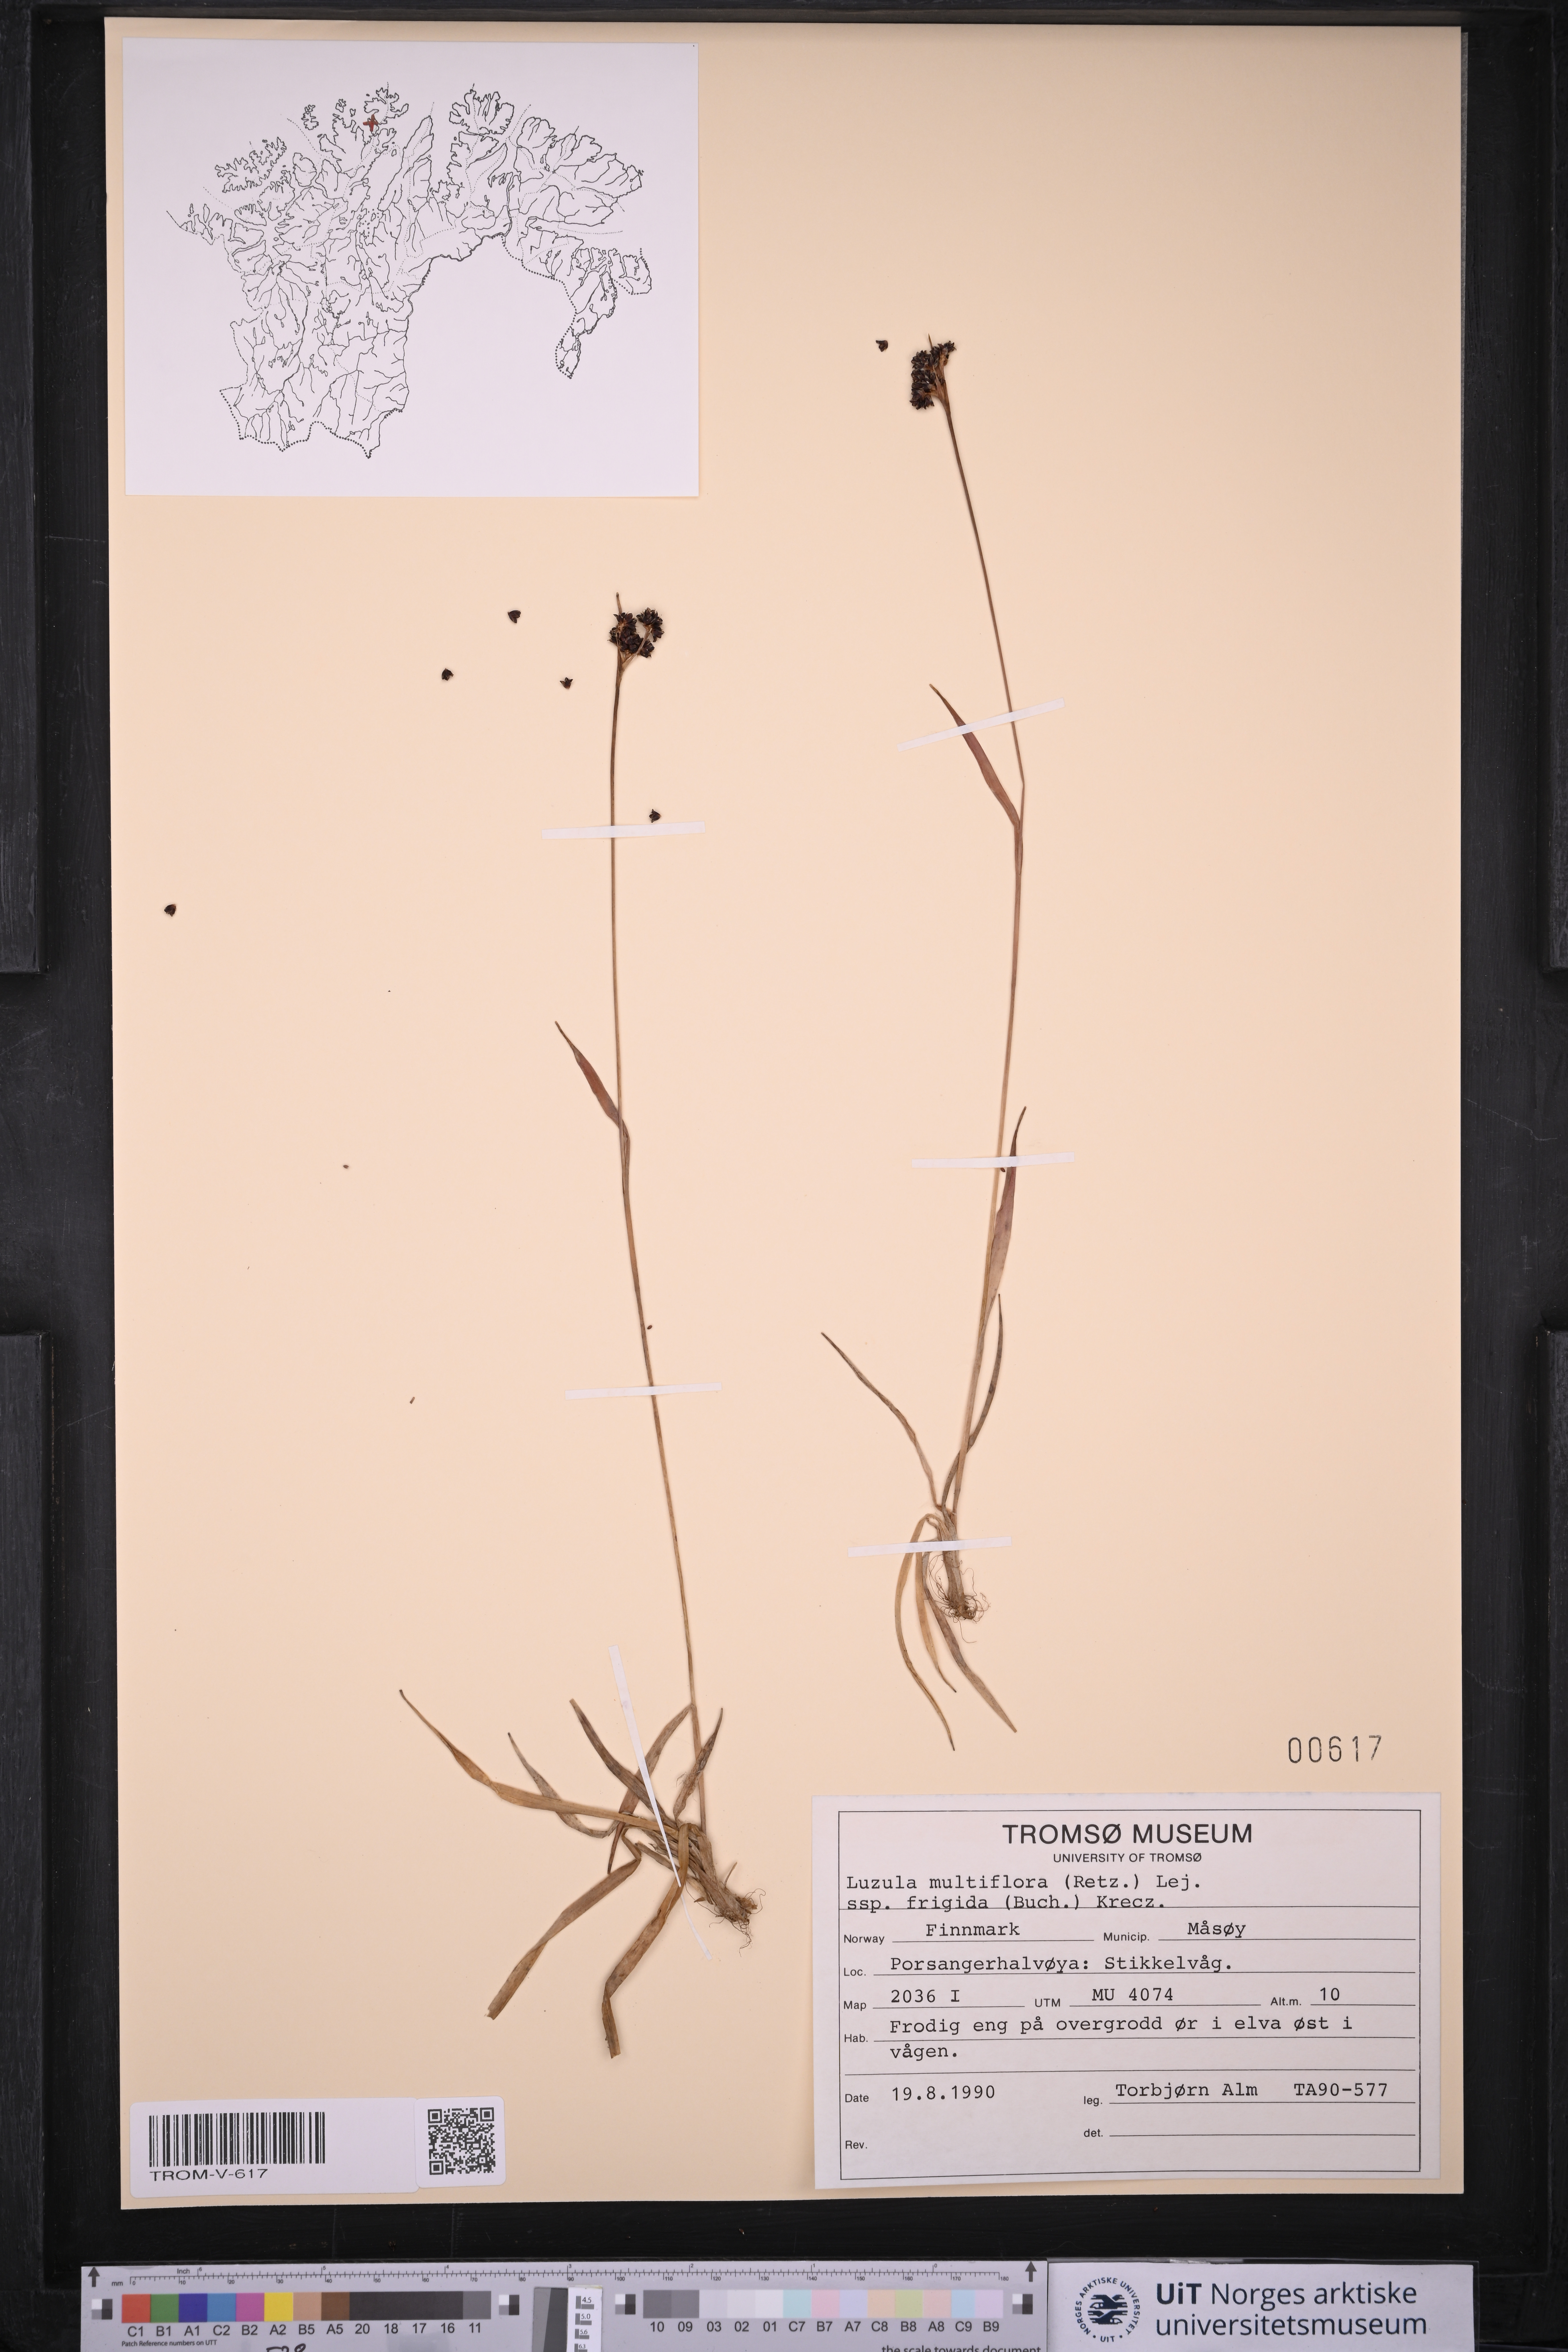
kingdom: Plantae
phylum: Tracheophyta
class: Liliopsida
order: Poales
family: Juncaceae
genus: Luzula
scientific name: Luzula multiflora
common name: Heath wood-rush
